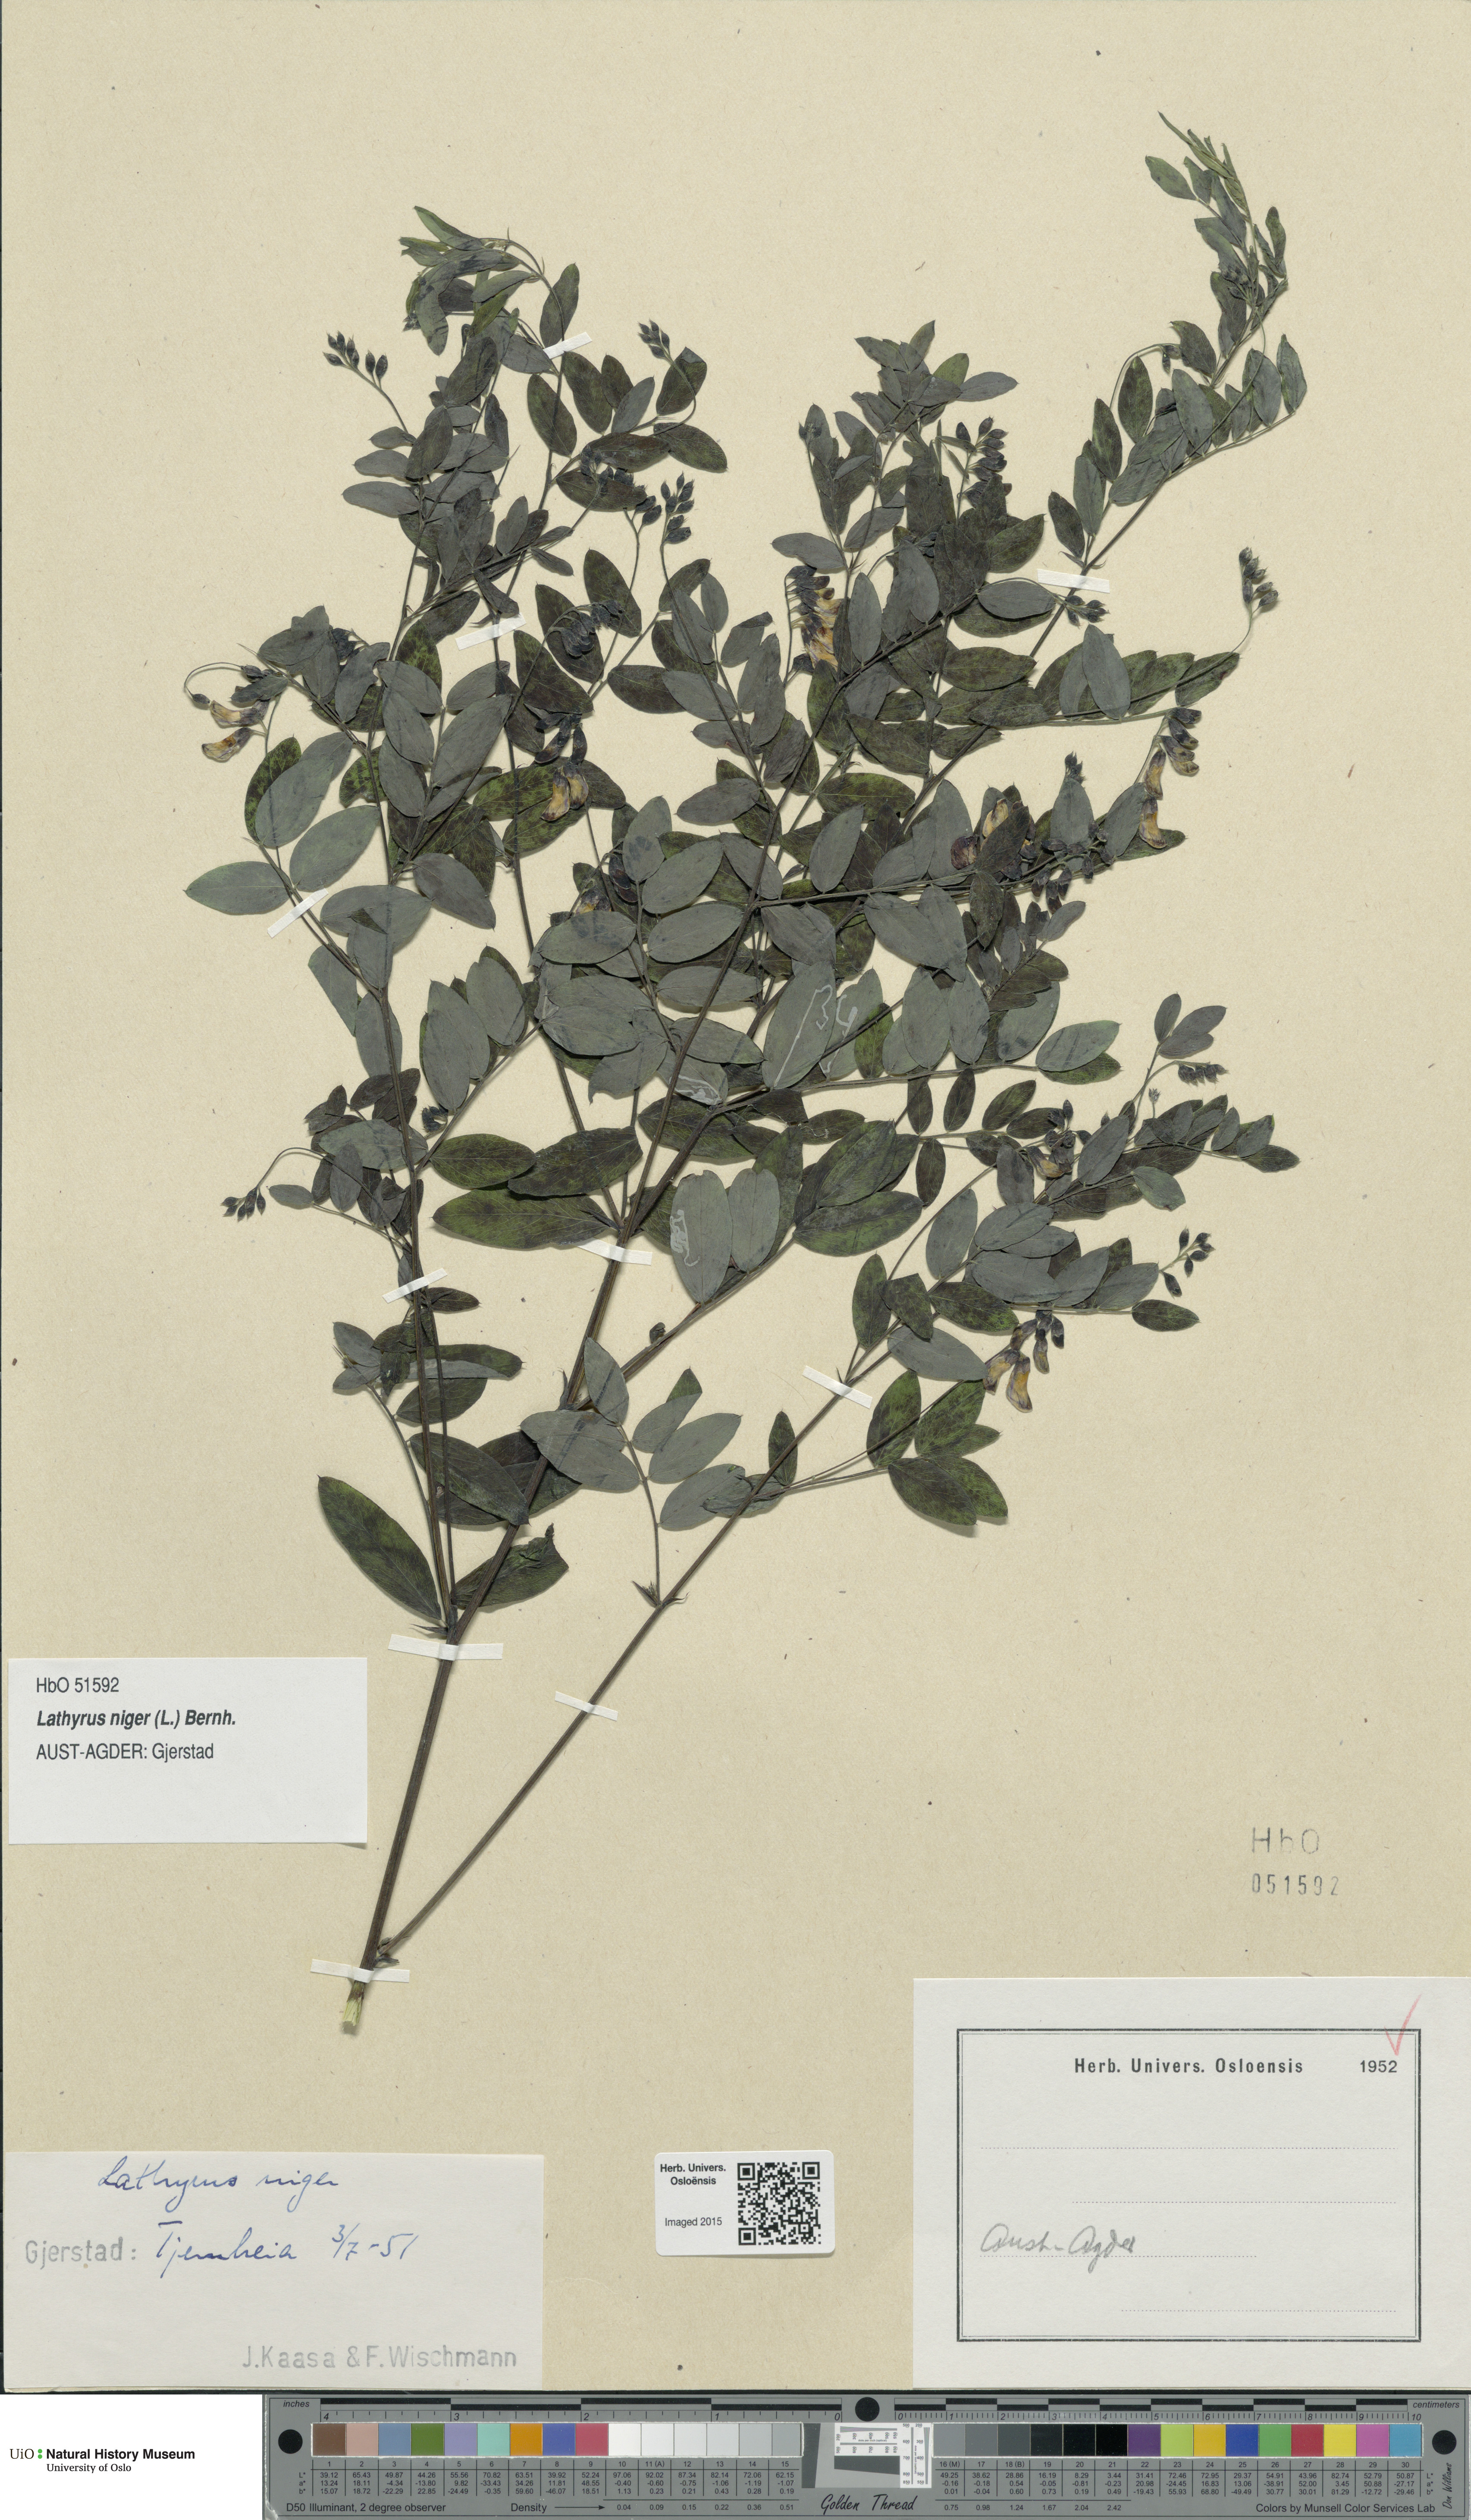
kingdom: Plantae
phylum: Tracheophyta
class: Magnoliopsida
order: Fabales
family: Fabaceae
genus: Lathyrus
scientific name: Lathyrus niger
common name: Black pea
